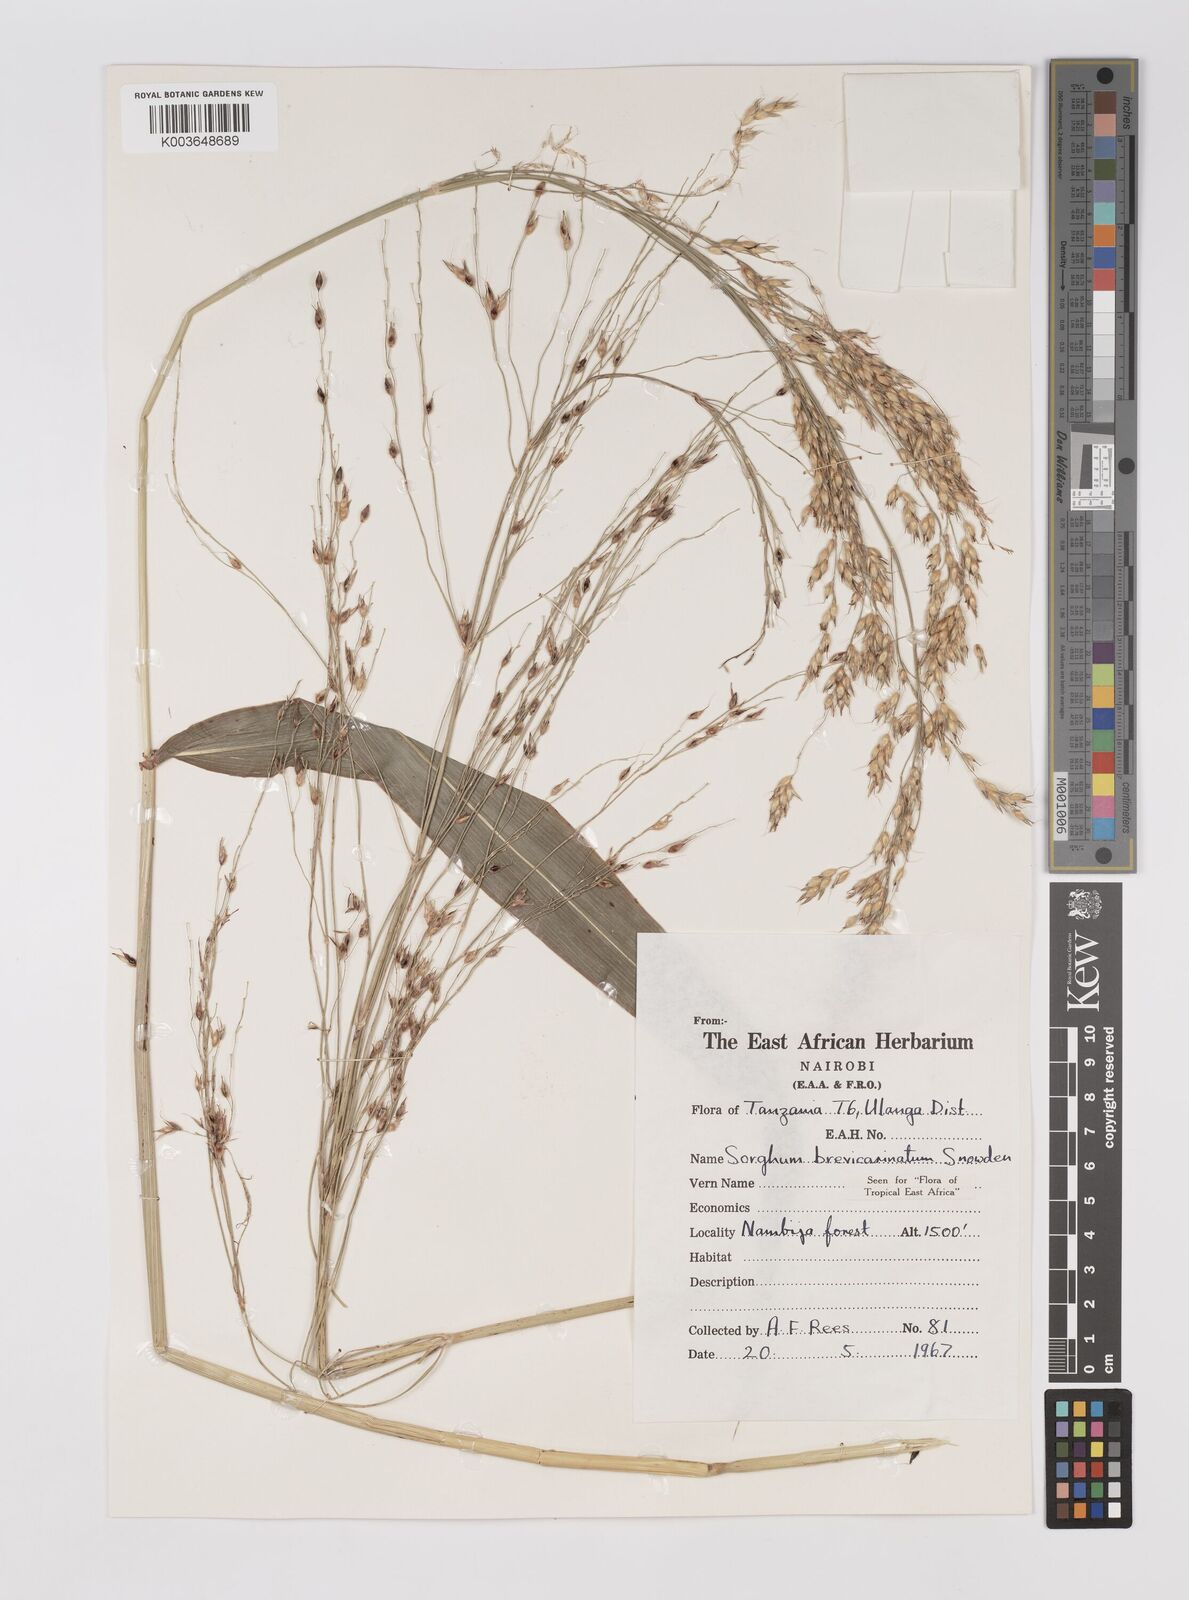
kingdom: Plantae
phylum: Tracheophyta
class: Liliopsida
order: Poales
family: Poaceae
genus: Sorghum
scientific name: Sorghum arundinaceum
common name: Sorghum
